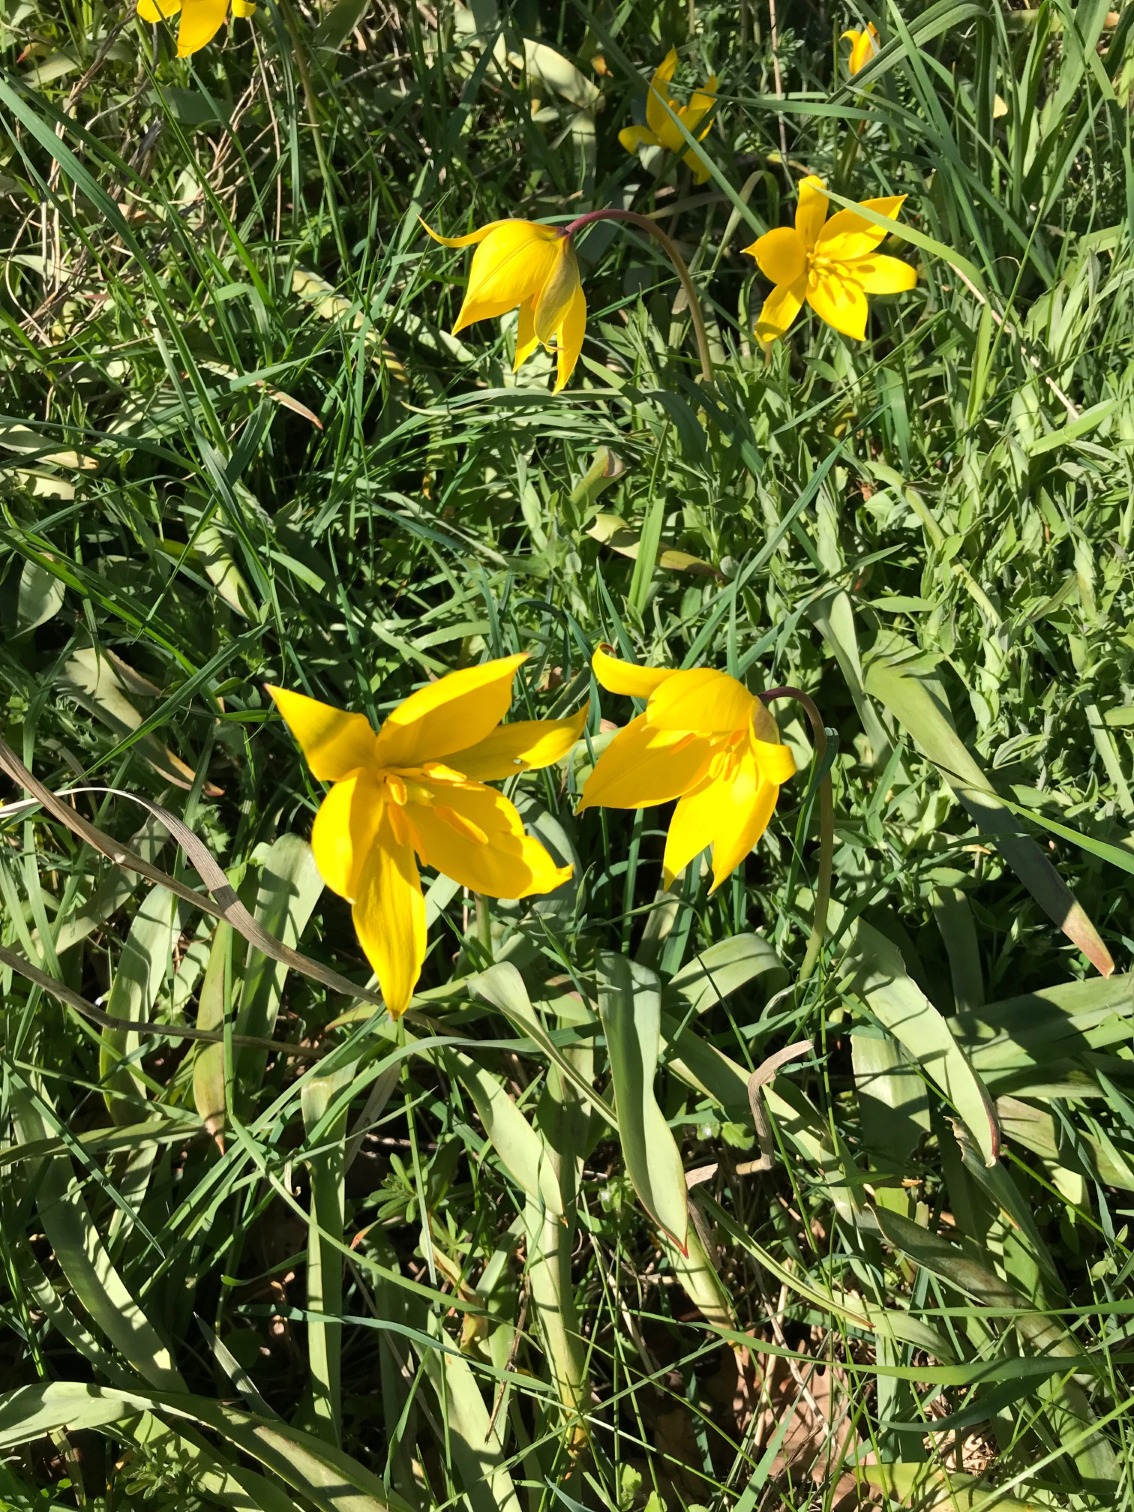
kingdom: Plantae
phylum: Tracheophyta
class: Liliopsida
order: Liliales
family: Liliaceae
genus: Tulipa
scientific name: Tulipa sylvestris
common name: Vild tulipan
